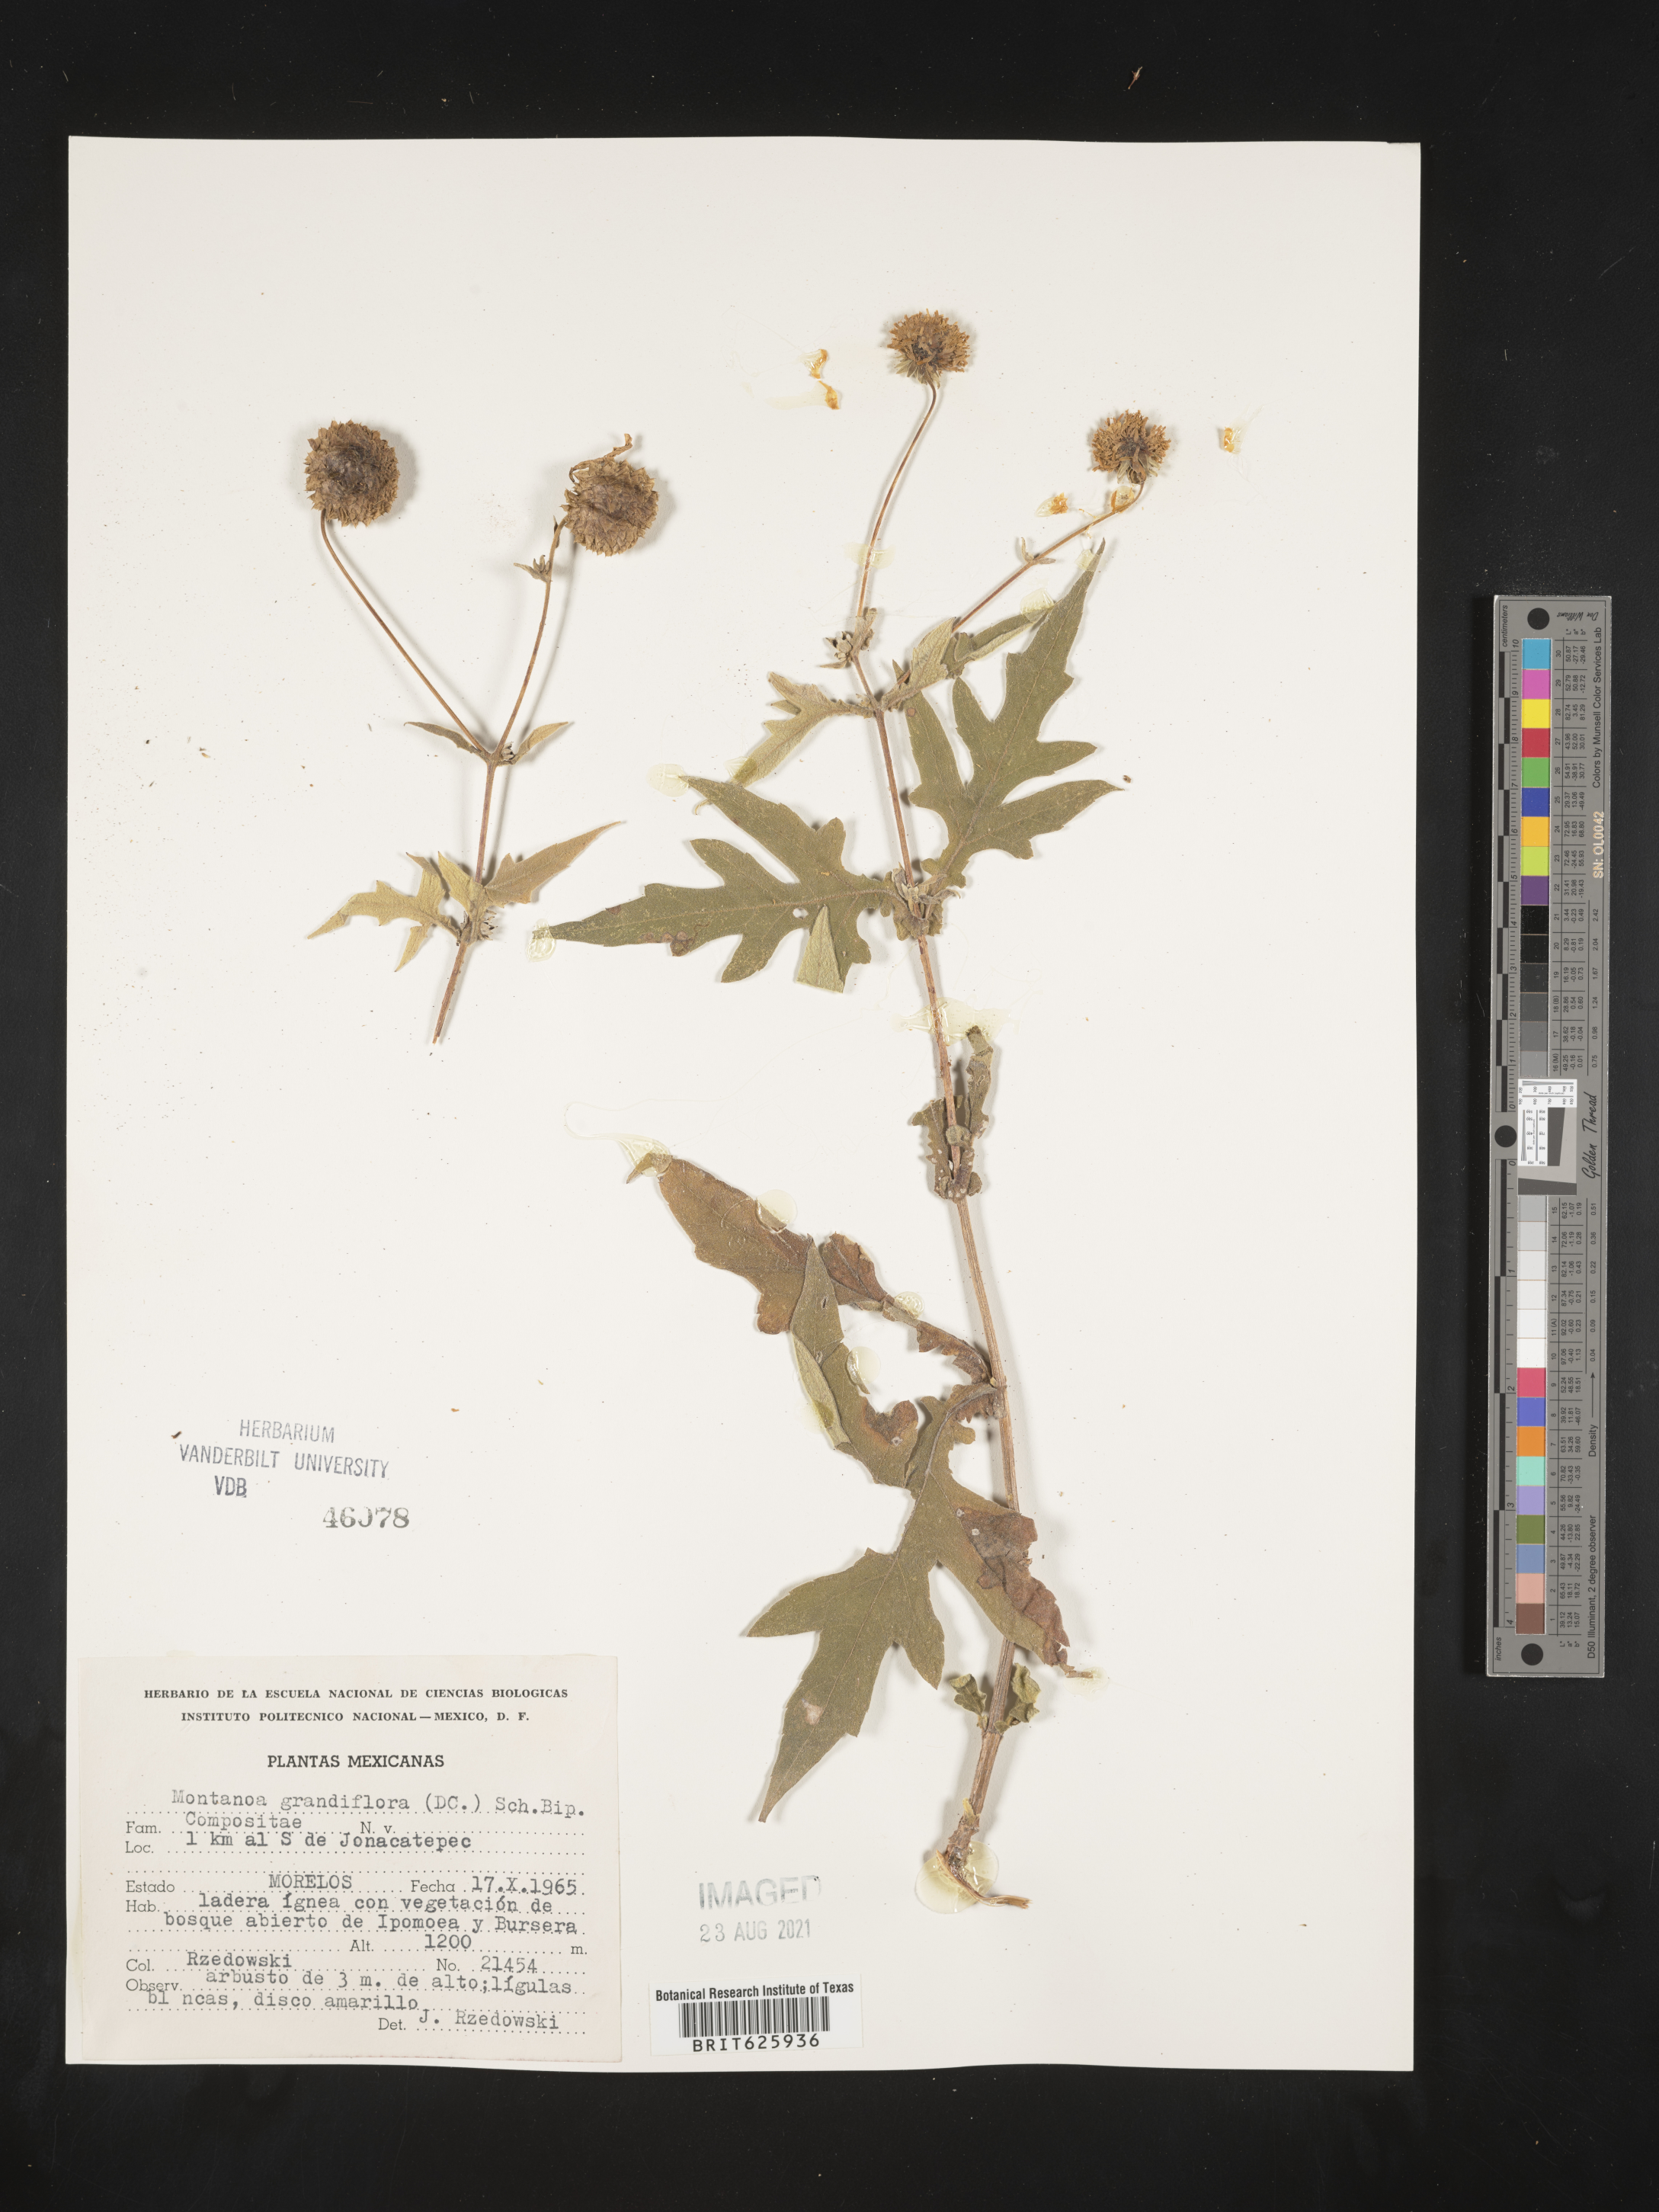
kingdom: Plantae
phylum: Tracheophyta
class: Magnoliopsida
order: Asterales
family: Asteraceae
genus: Montanoa
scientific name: Montanoa
